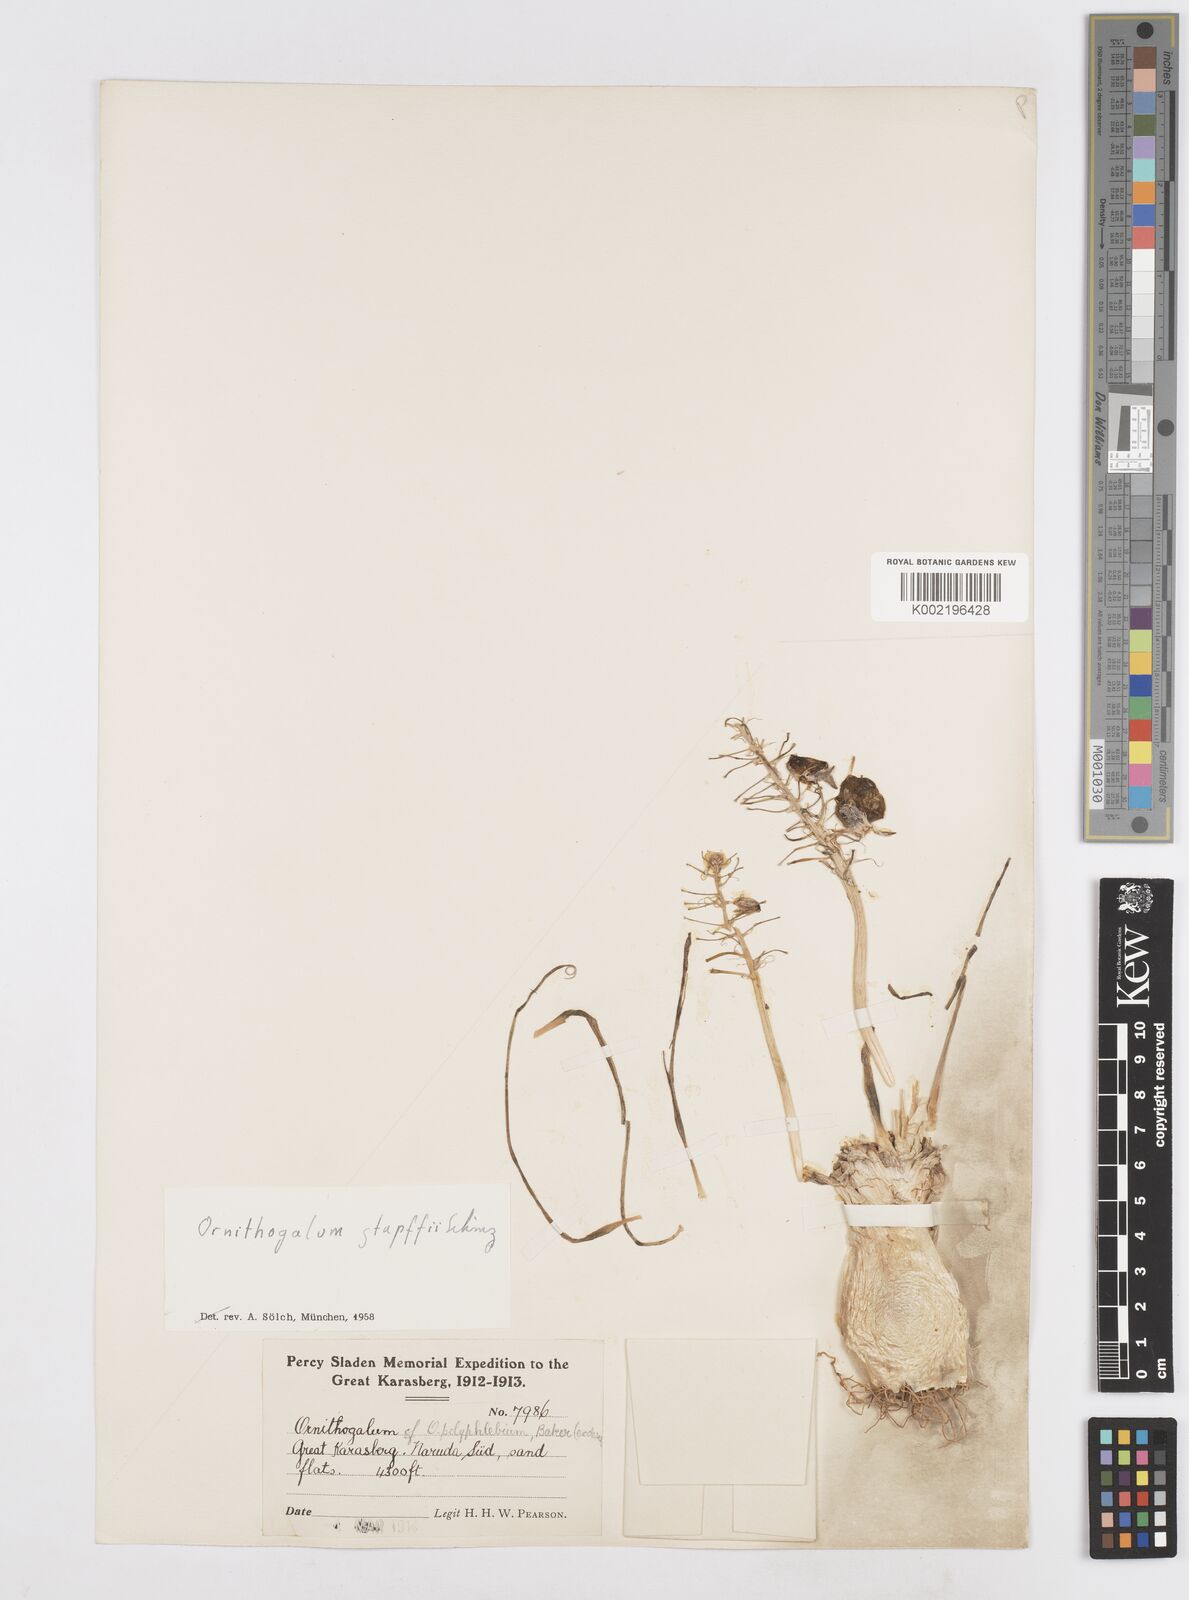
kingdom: Plantae
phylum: Tracheophyta
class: Liliopsida
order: Asparagales
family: Asparagaceae
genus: Albuca
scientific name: Albuca stapffii
